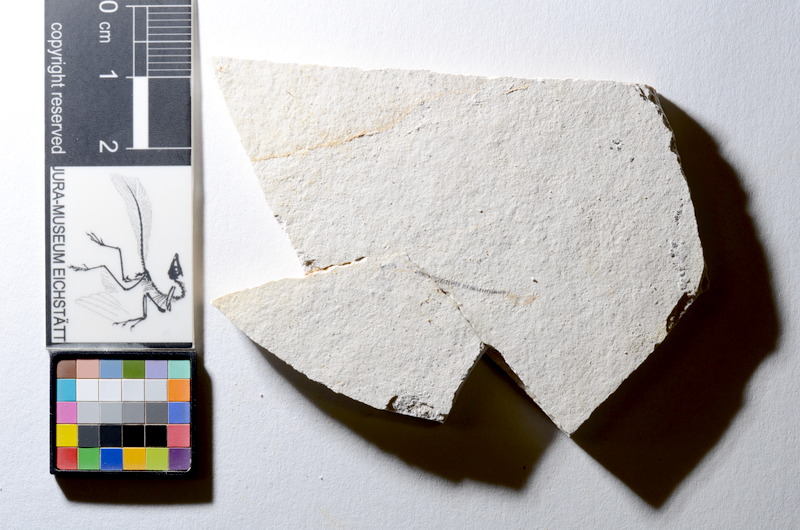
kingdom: Animalia
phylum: Chordata
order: Salmoniformes
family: Orthogonikleithridae
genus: Orthogonikleithrus
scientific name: Orthogonikleithrus hoelli
